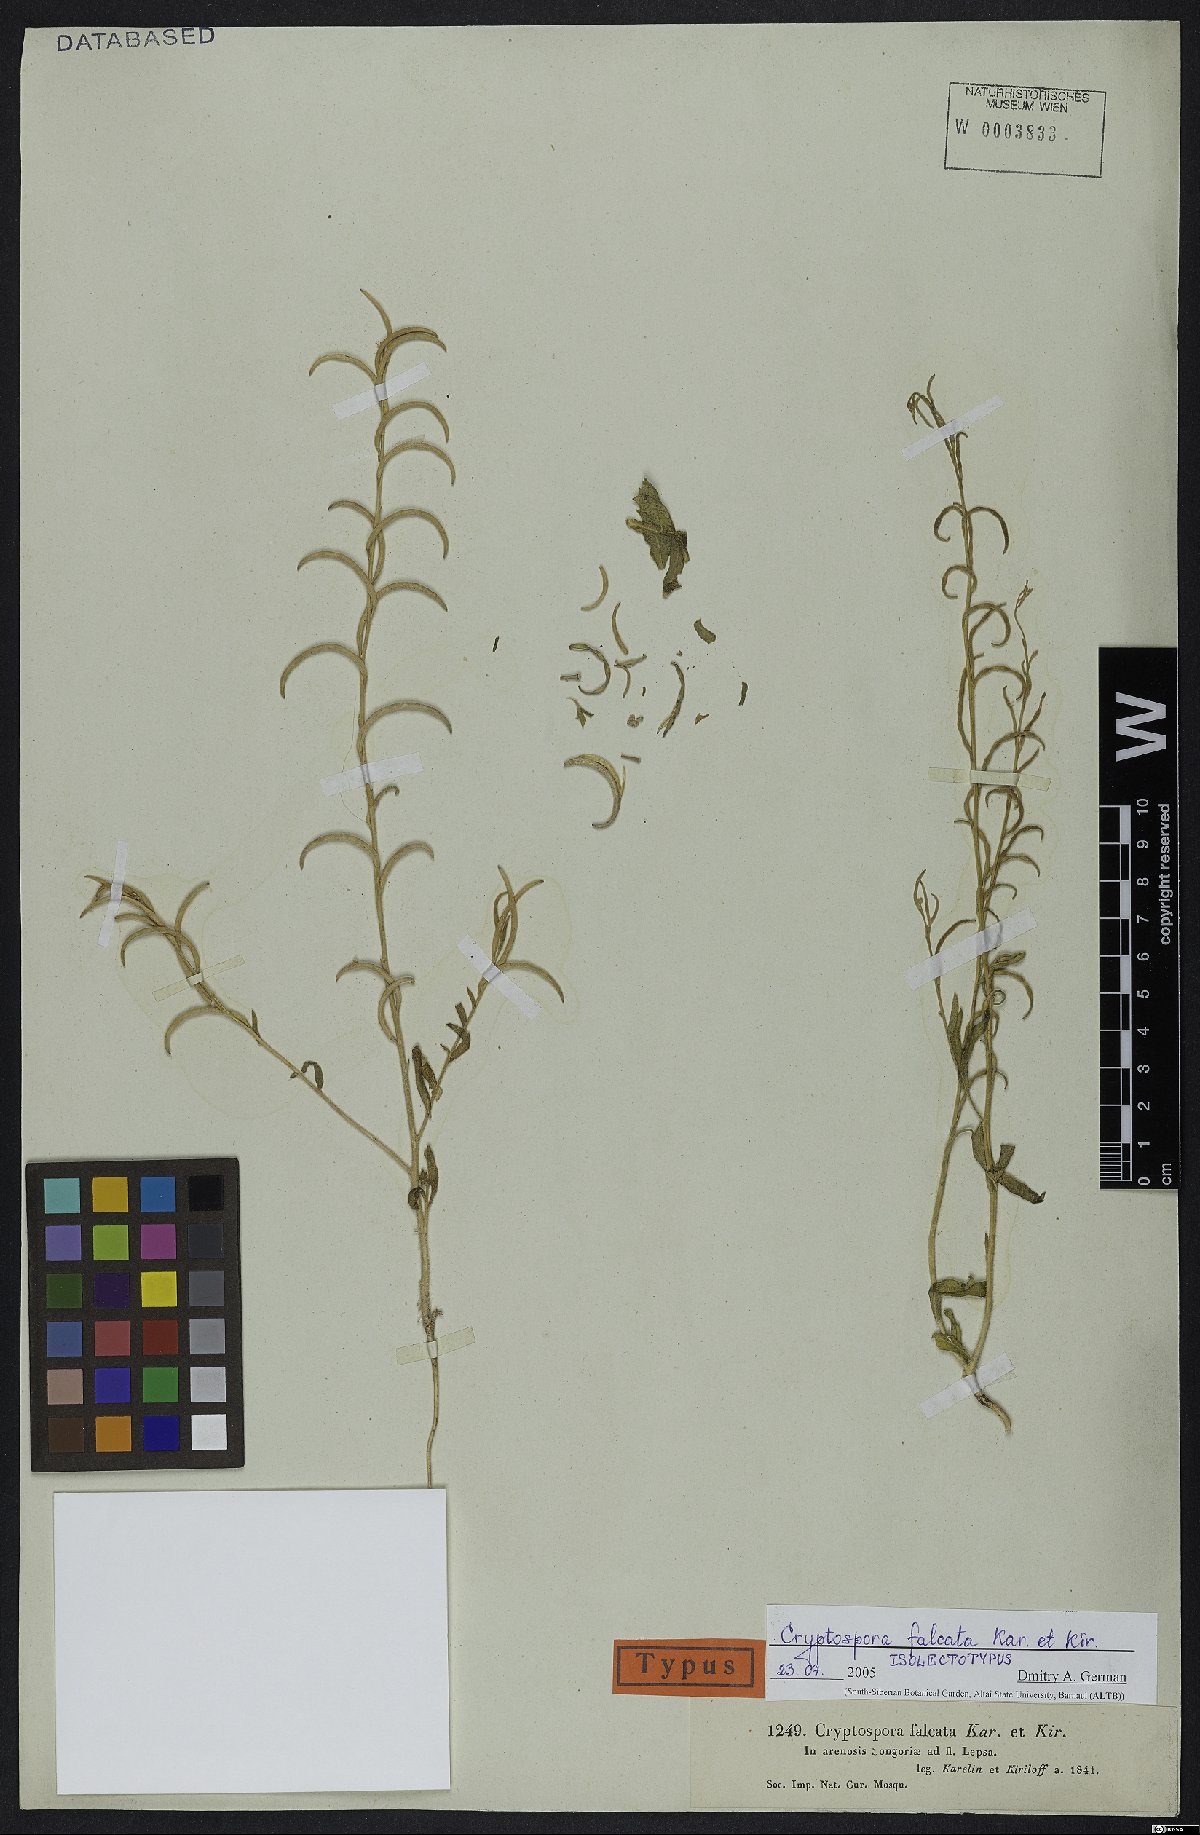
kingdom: Plantae
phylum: Tracheophyta
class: Magnoliopsida
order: Brassicales
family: Brassicaceae
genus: Cryptospora
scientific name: Cryptospora falcata
